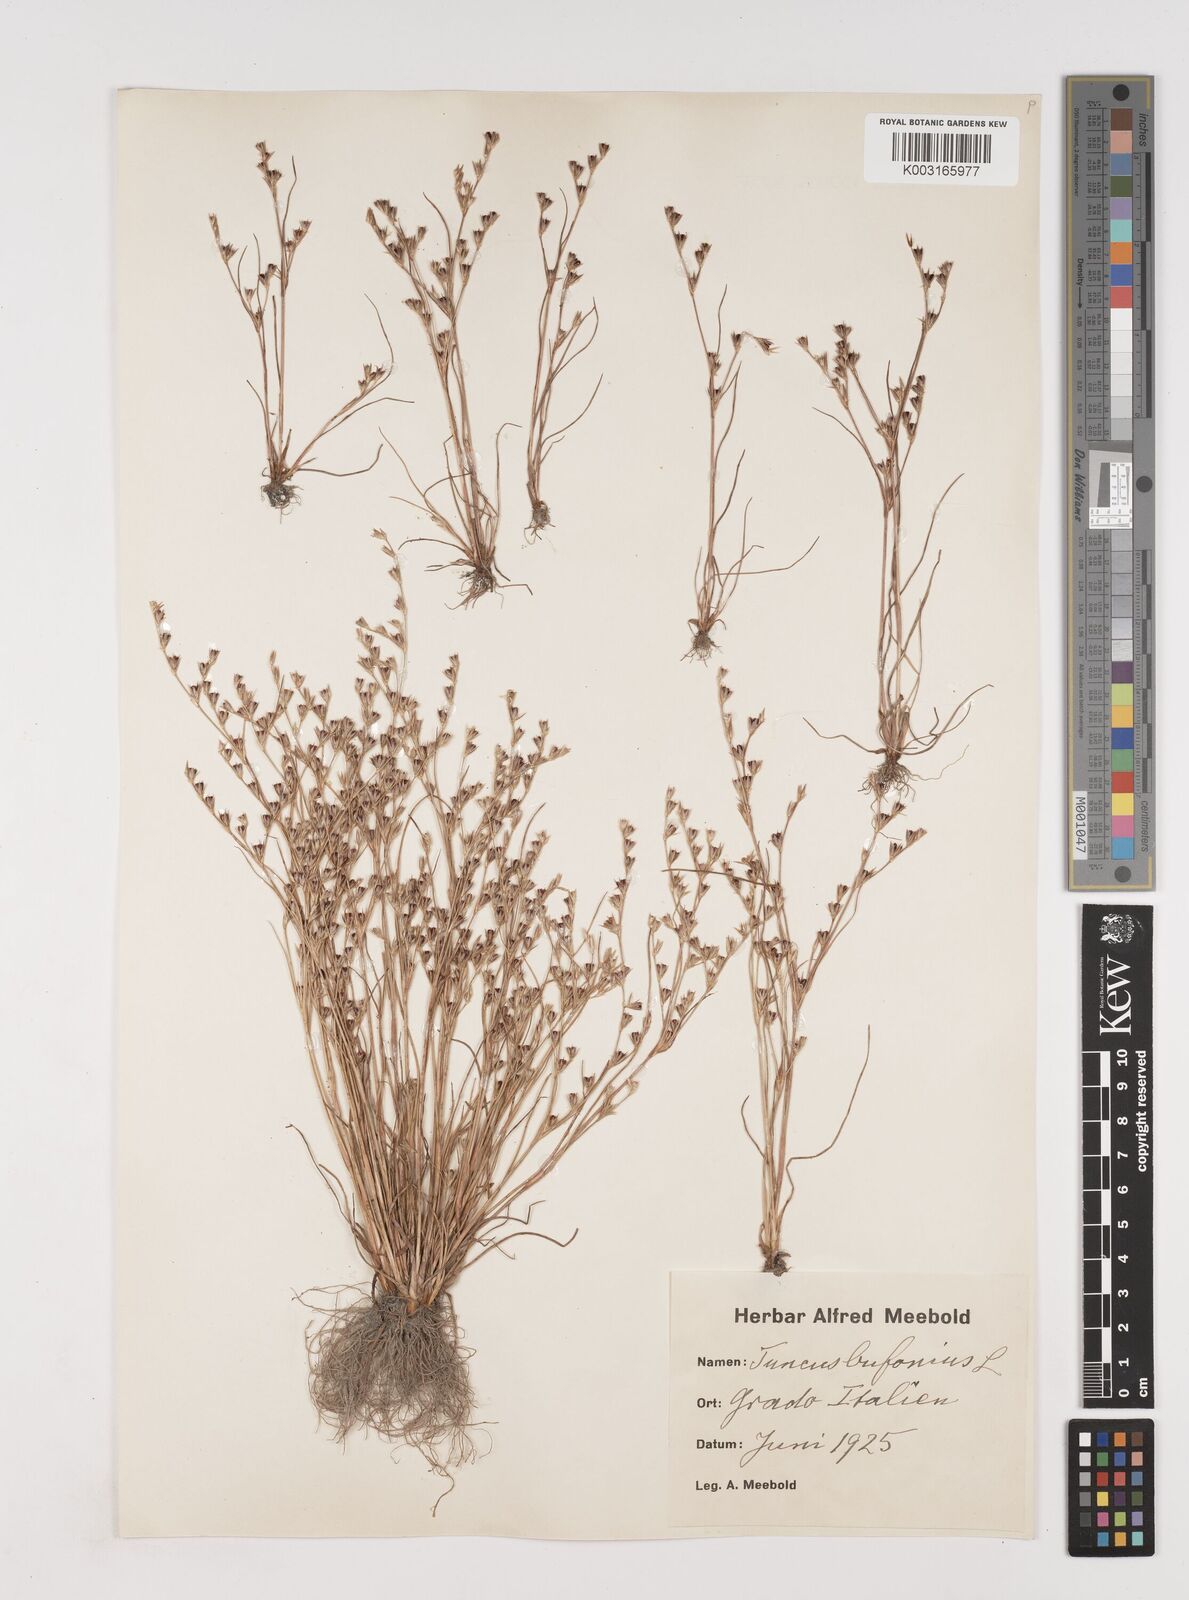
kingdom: Plantae
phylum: Tracheophyta
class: Liliopsida
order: Poales
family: Juncaceae
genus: Juncus
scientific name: Juncus bufonius
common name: Toad rush
